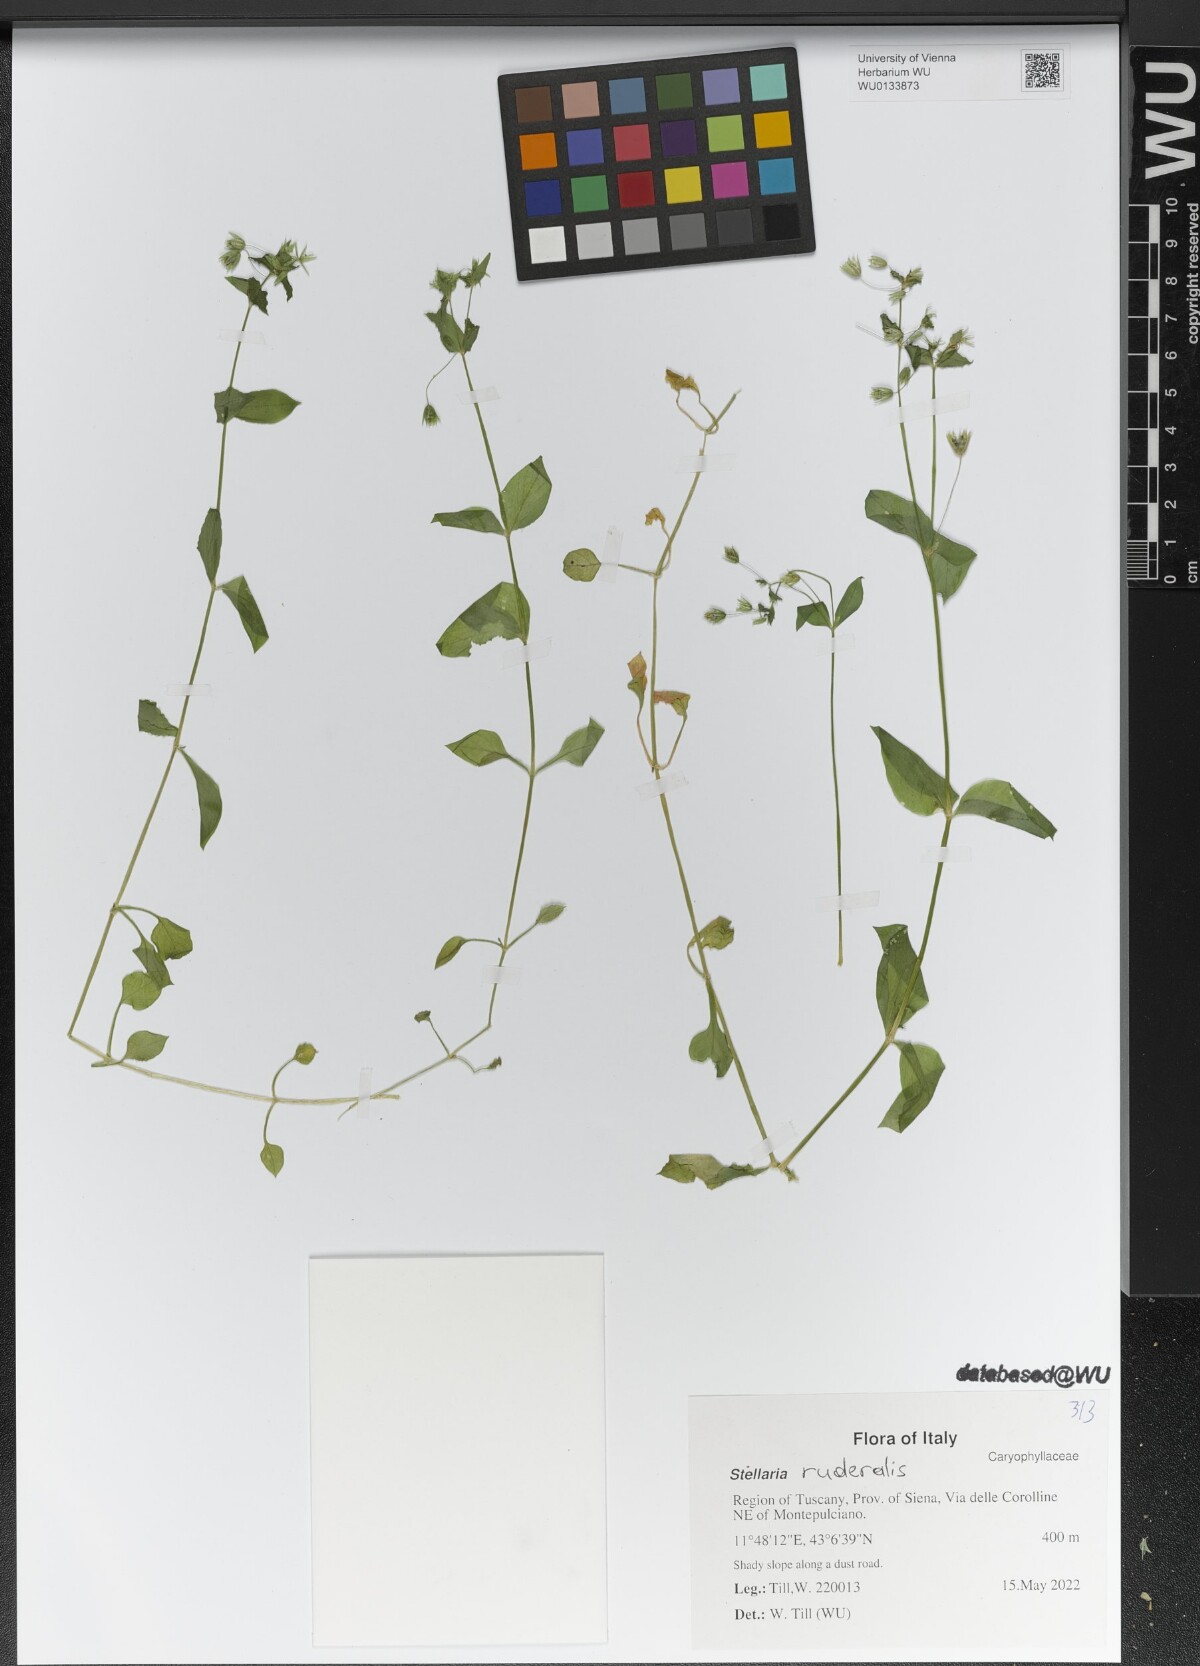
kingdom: Plantae
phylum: Tracheophyta
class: Magnoliopsida
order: Caryophyllales
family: Caryophyllaceae
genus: Stellaria
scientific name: Stellaria ruderalis
